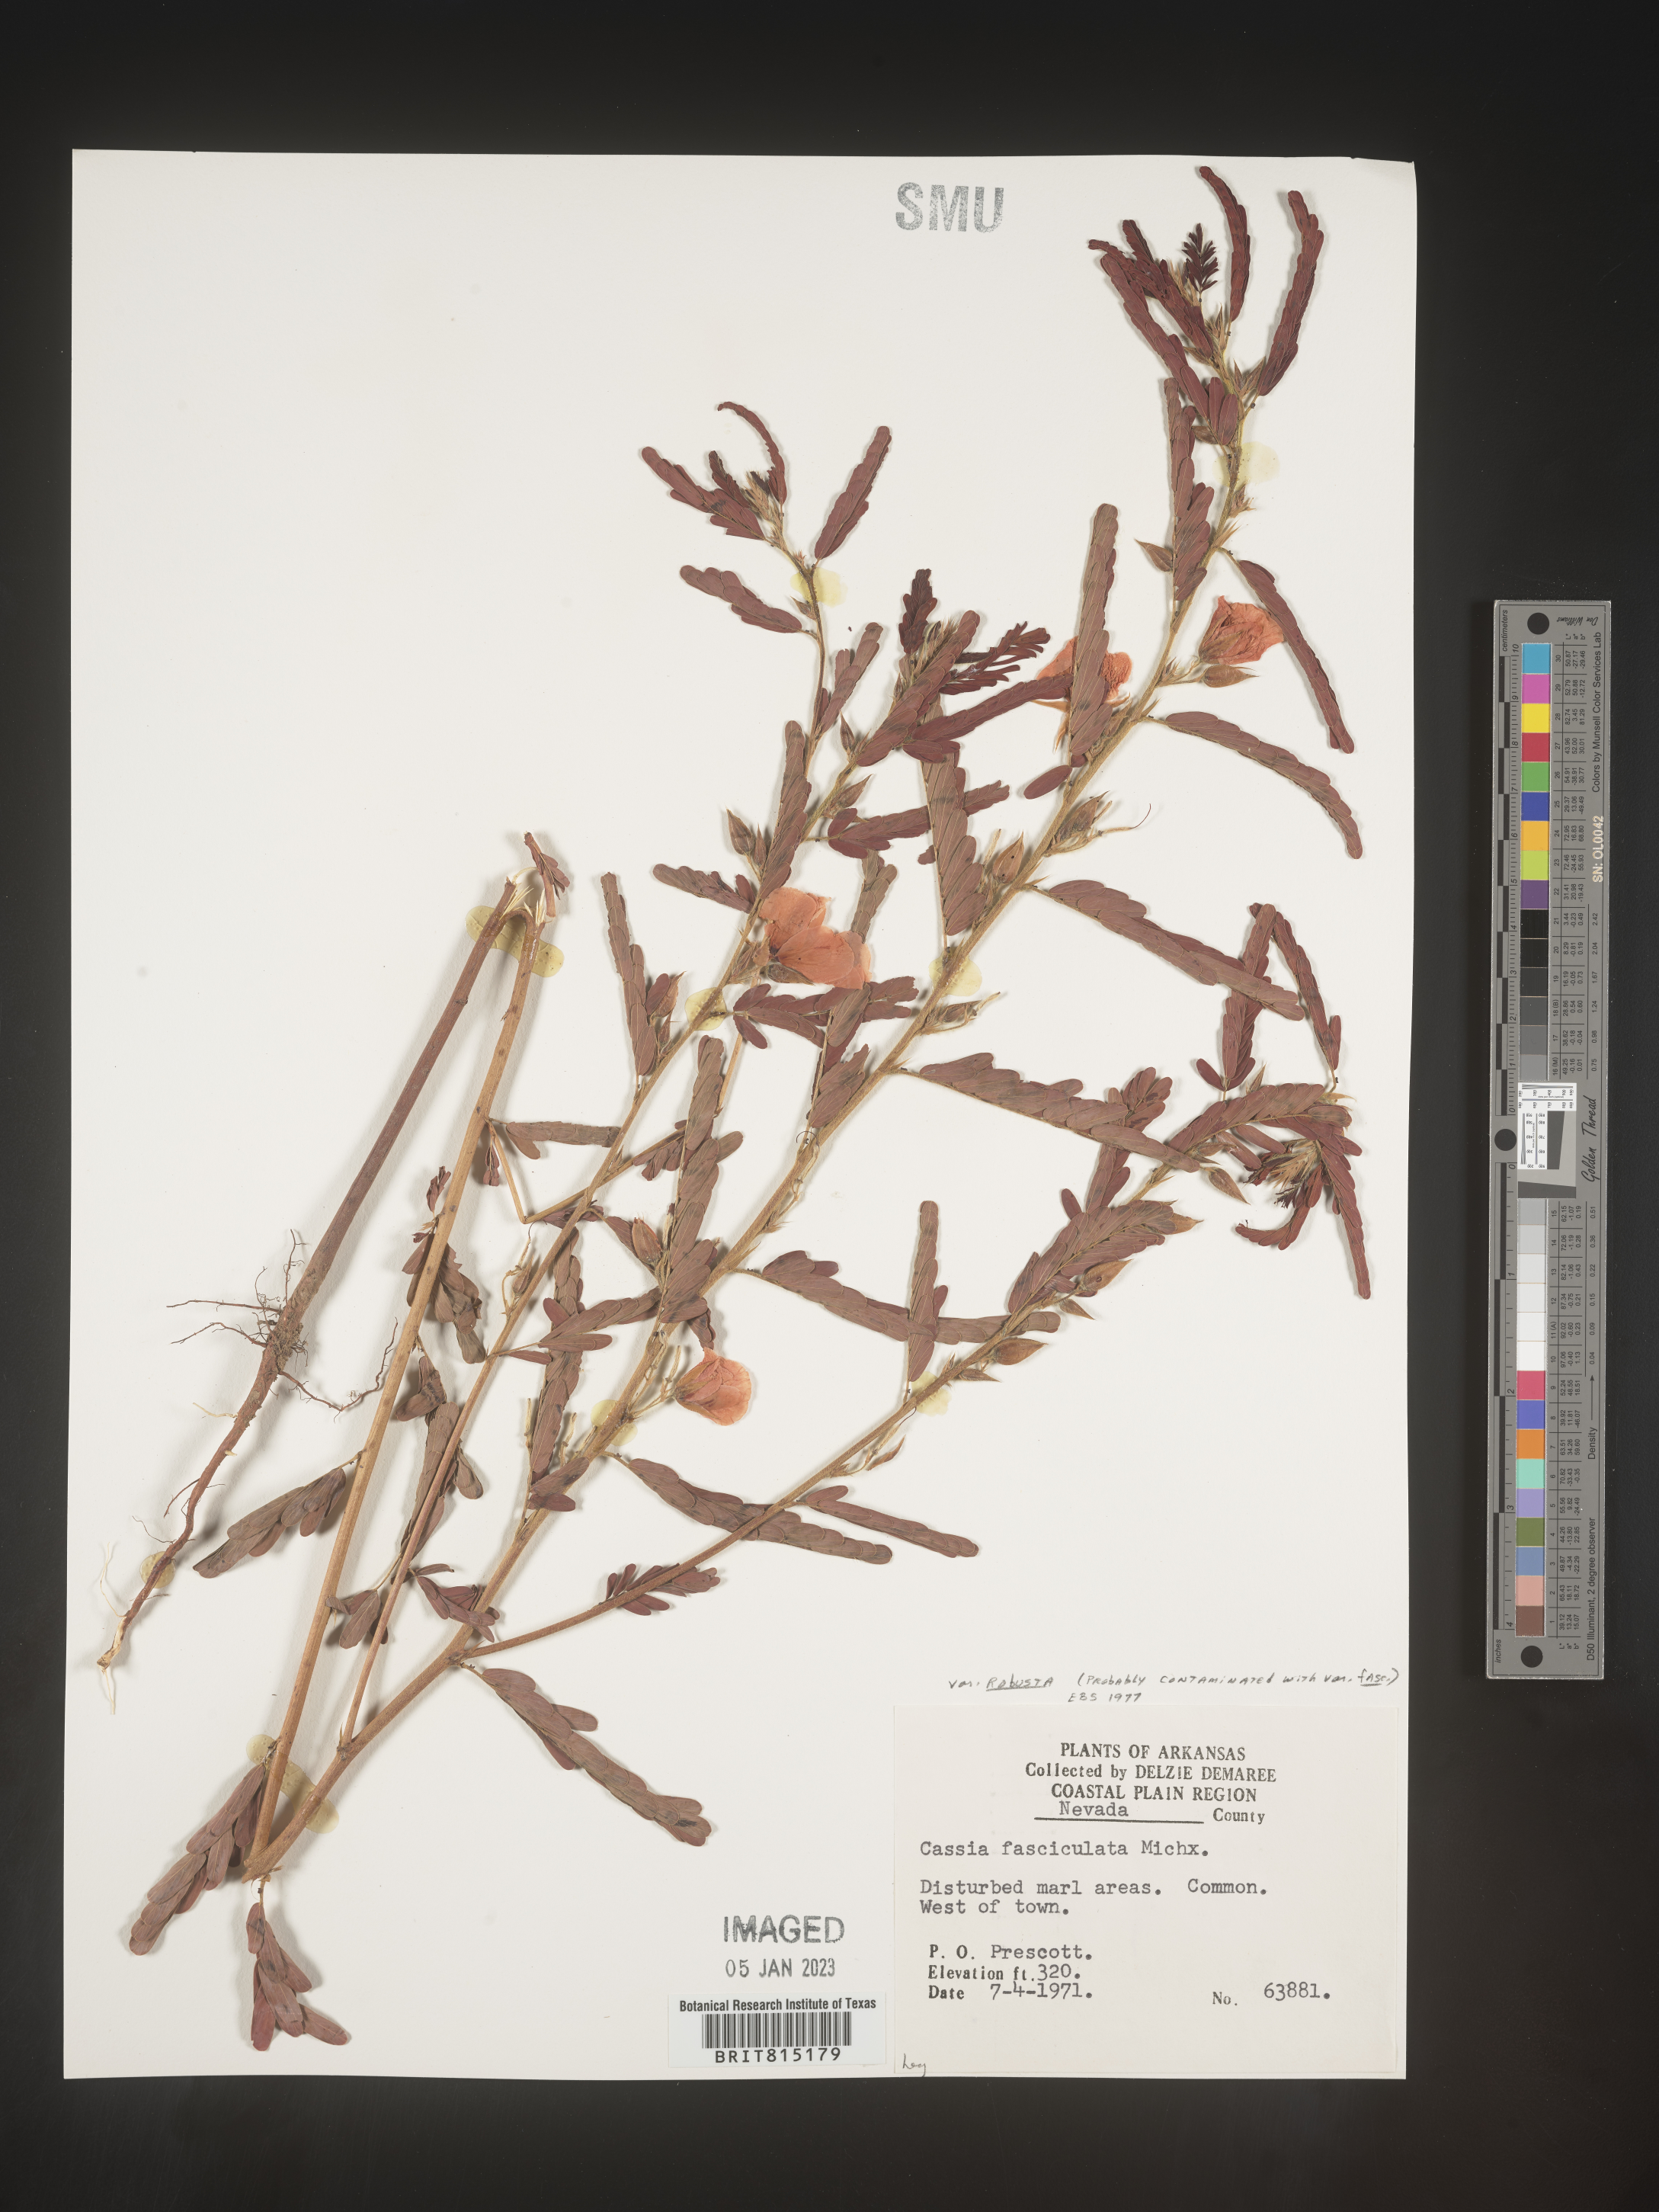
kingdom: Plantae
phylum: Tracheophyta
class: Magnoliopsida
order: Fabales
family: Fabaceae
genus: Chamaecrista
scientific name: Chamaecrista fasciculata
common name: Golden cassia
